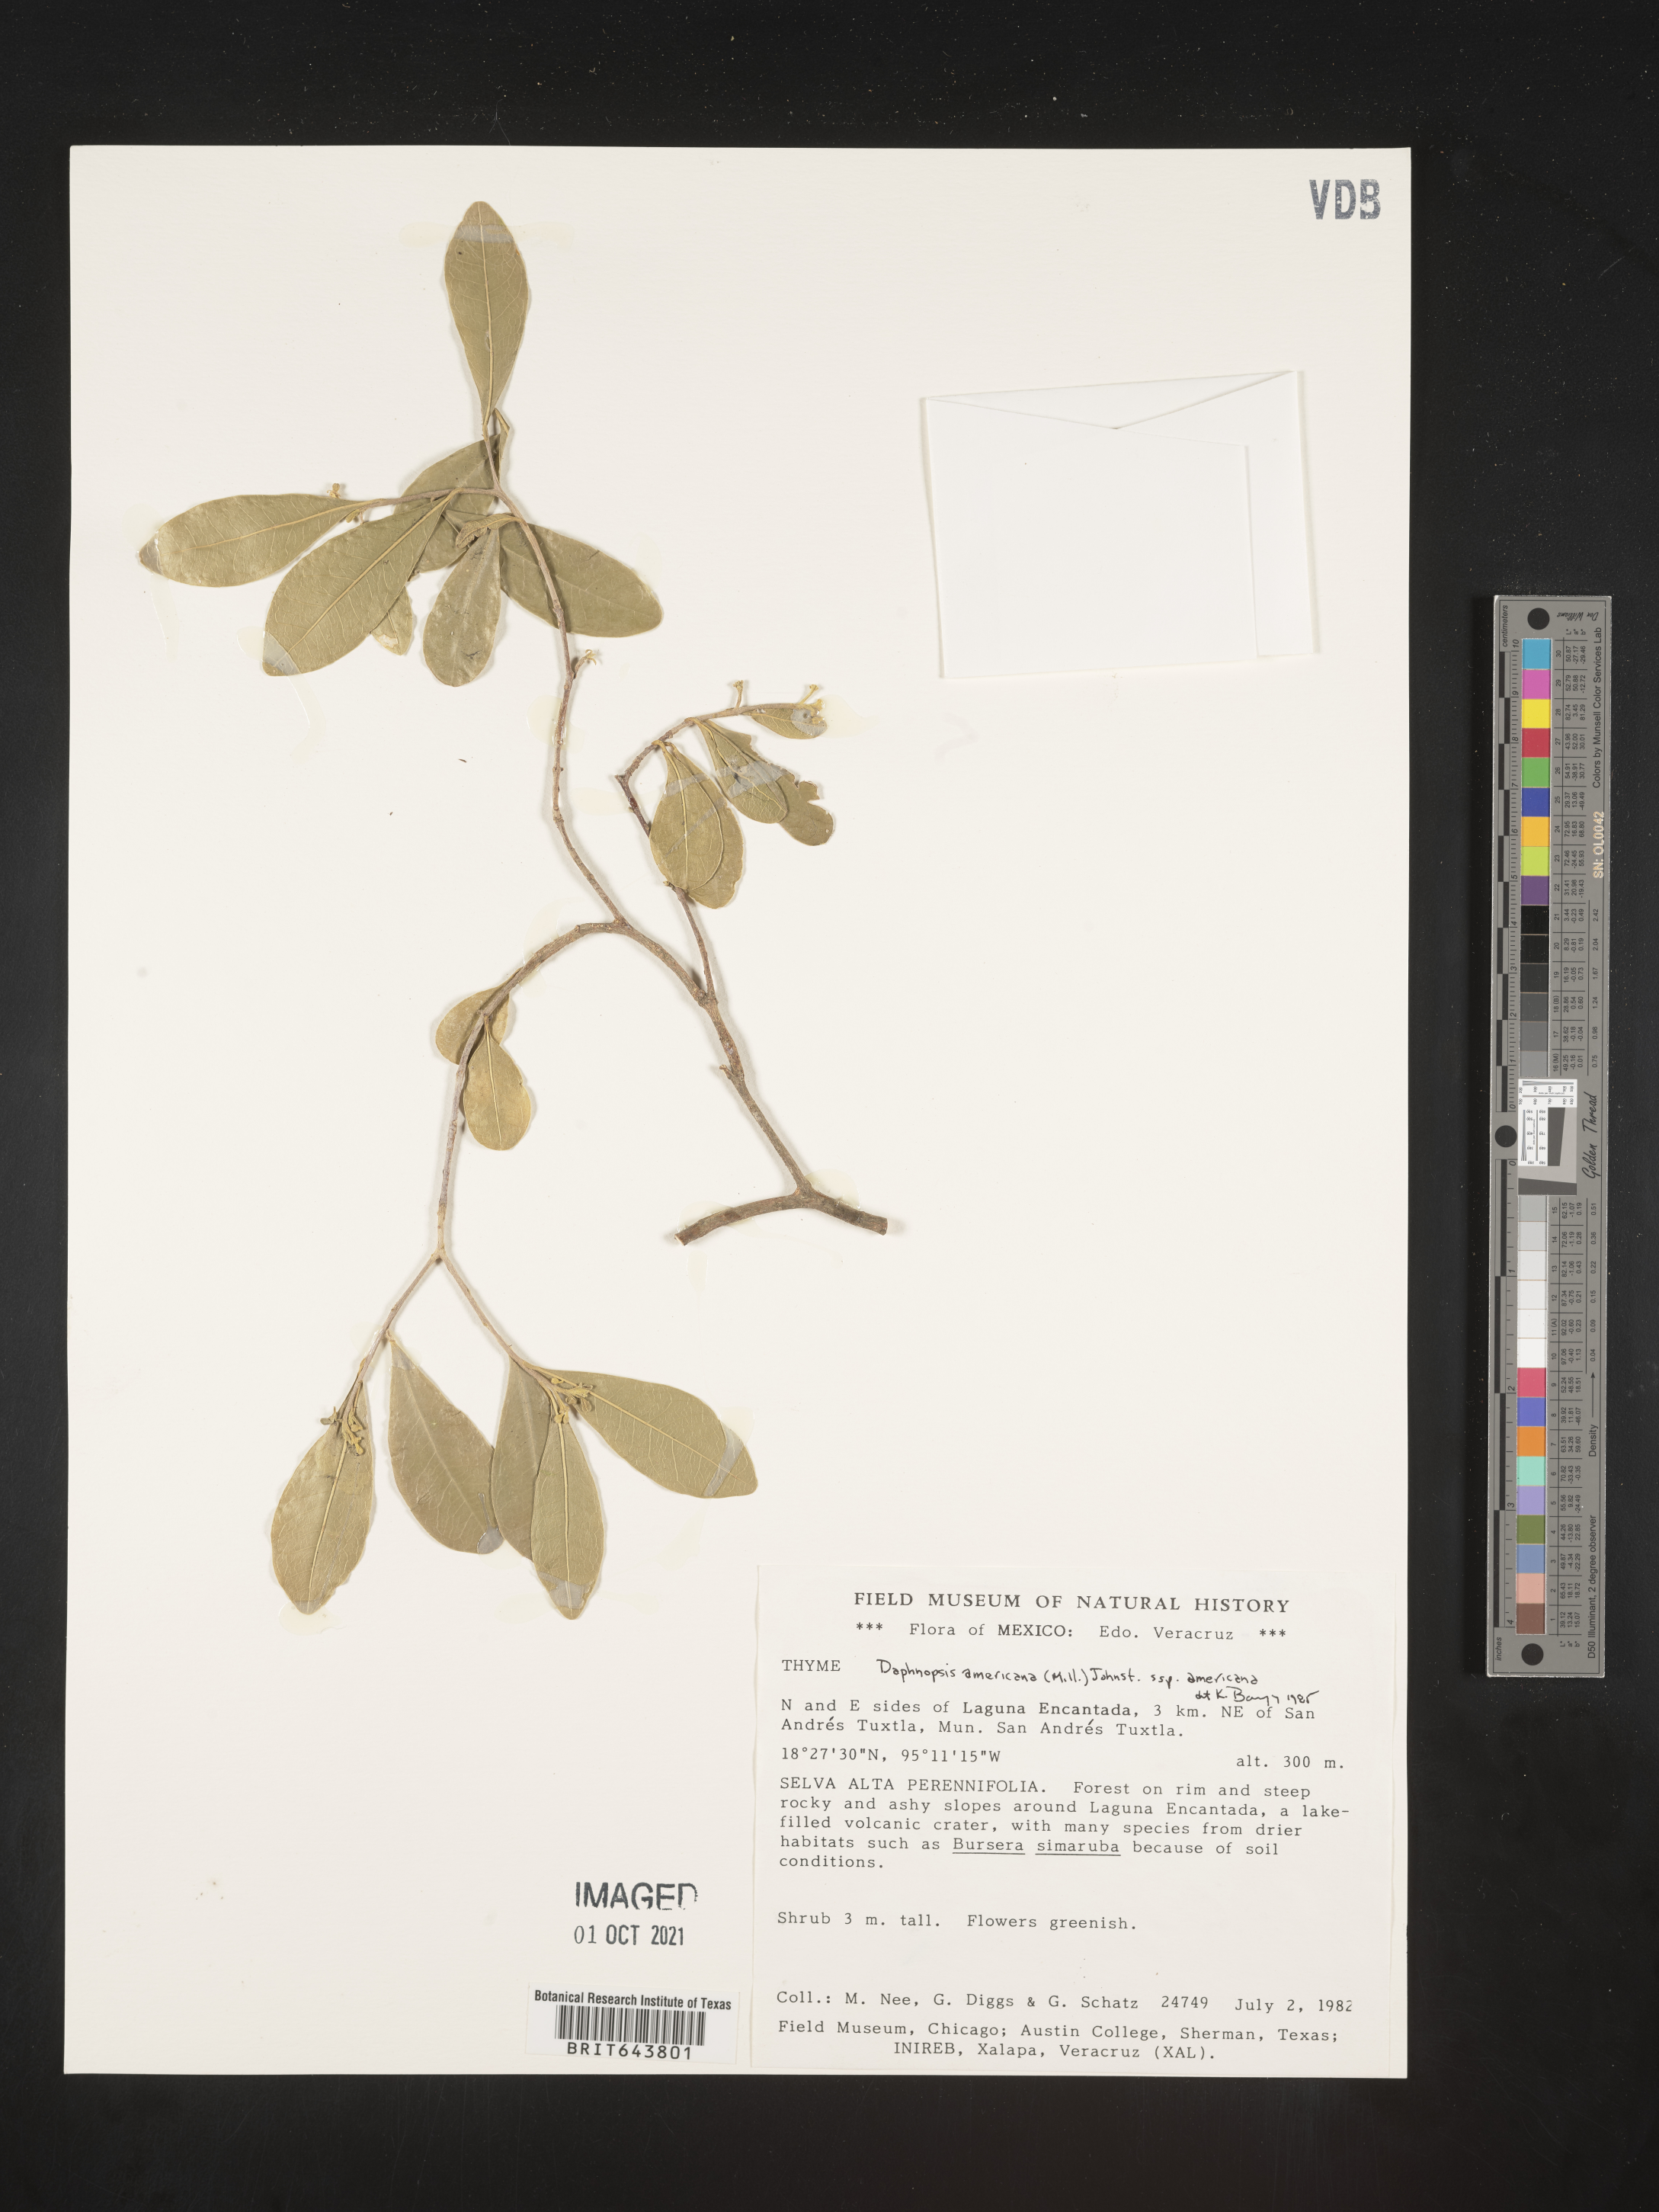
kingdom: Plantae
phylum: Tracheophyta
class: Magnoliopsida
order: Malvales
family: Thymelaeaceae
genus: Daphnopsis
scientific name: Daphnopsis
